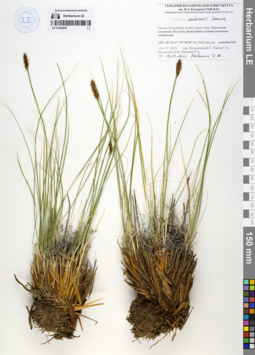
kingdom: Plantae
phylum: Tracheophyta
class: Liliopsida
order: Poales
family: Cyperaceae
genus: Carex
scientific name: Carex borealipolaris
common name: Siberian bog sedge
